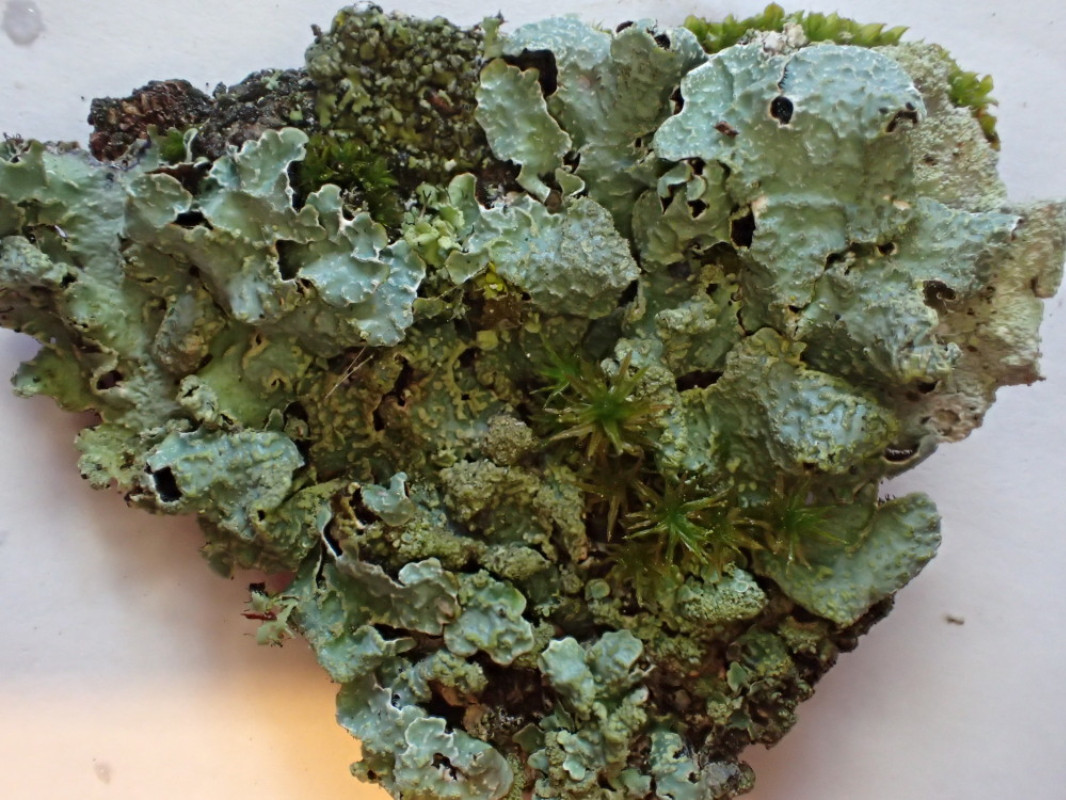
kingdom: Fungi
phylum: Ascomycota
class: Lecanoromycetes
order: Lecanorales
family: Parmeliaceae
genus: Parmelia
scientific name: Parmelia sulcata
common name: rynket skållav
